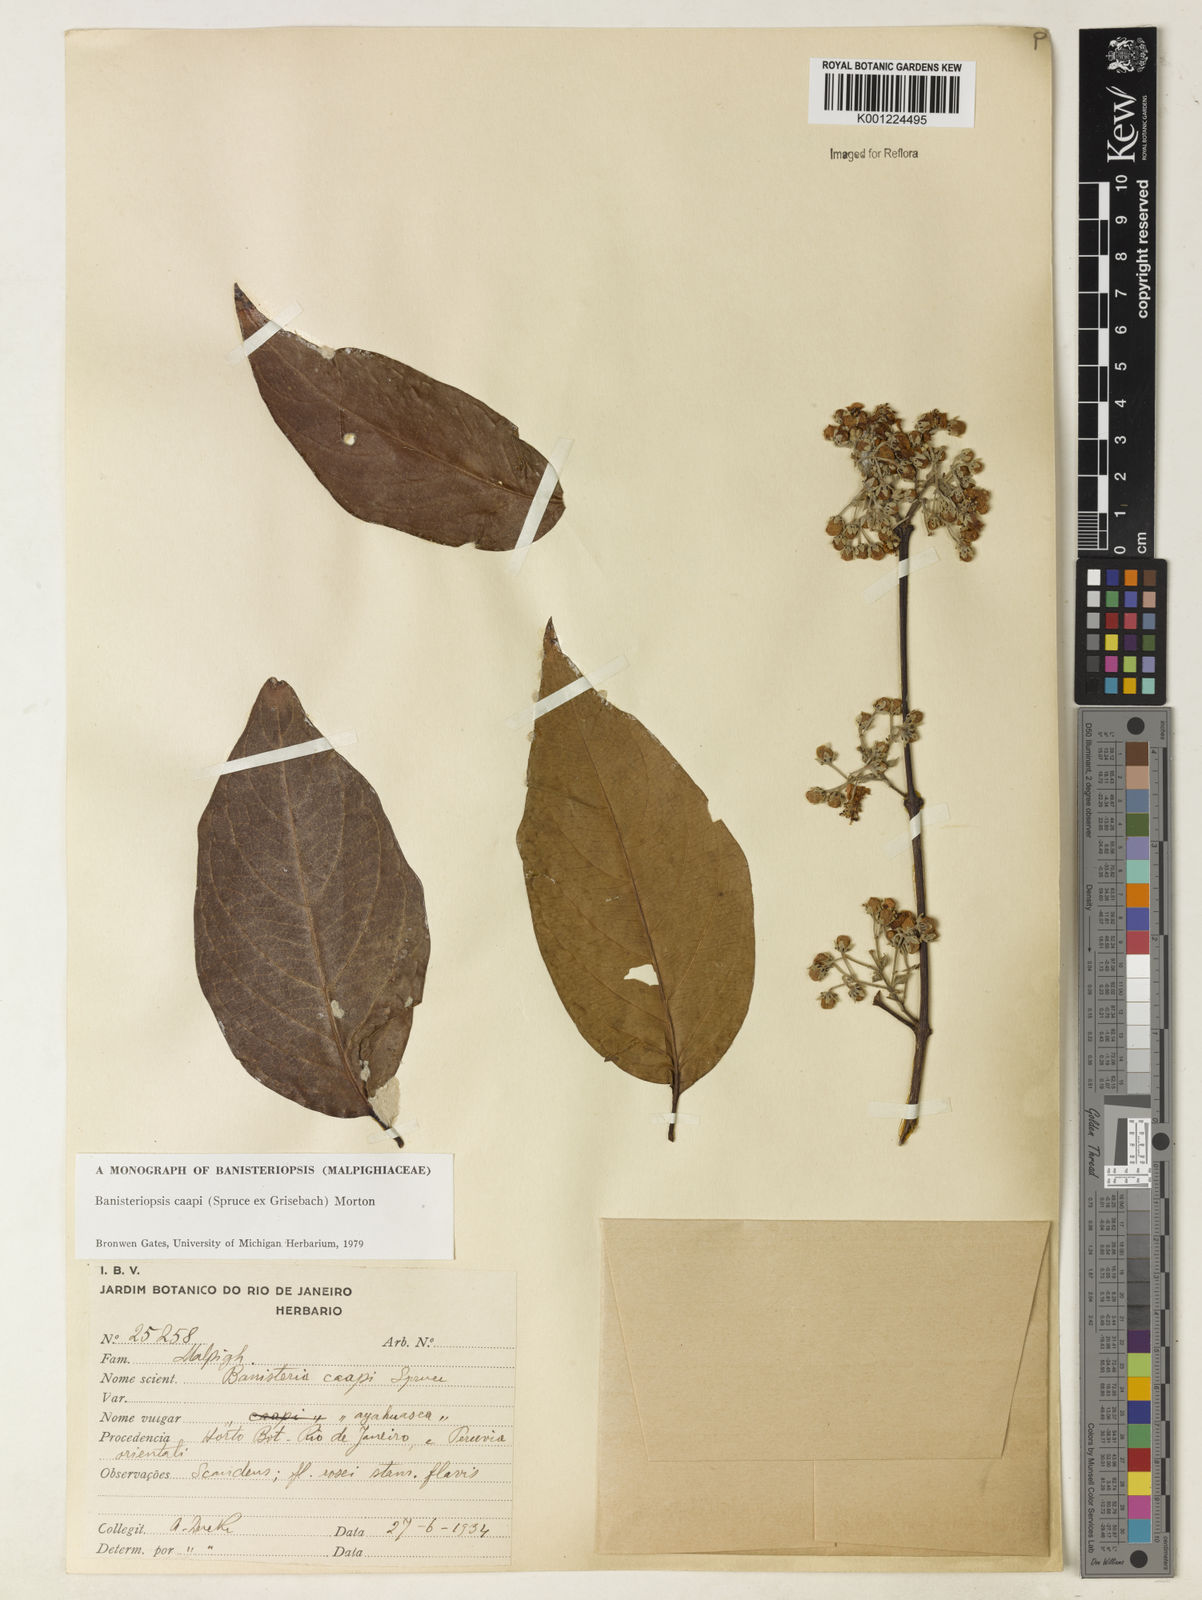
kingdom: Plantae
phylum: Tracheophyta
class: Magnoliopsida
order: Malpighiales
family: Malpighiaceae
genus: Banisteriopsis
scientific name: Banisteriopsis caapi
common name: Soulvine
